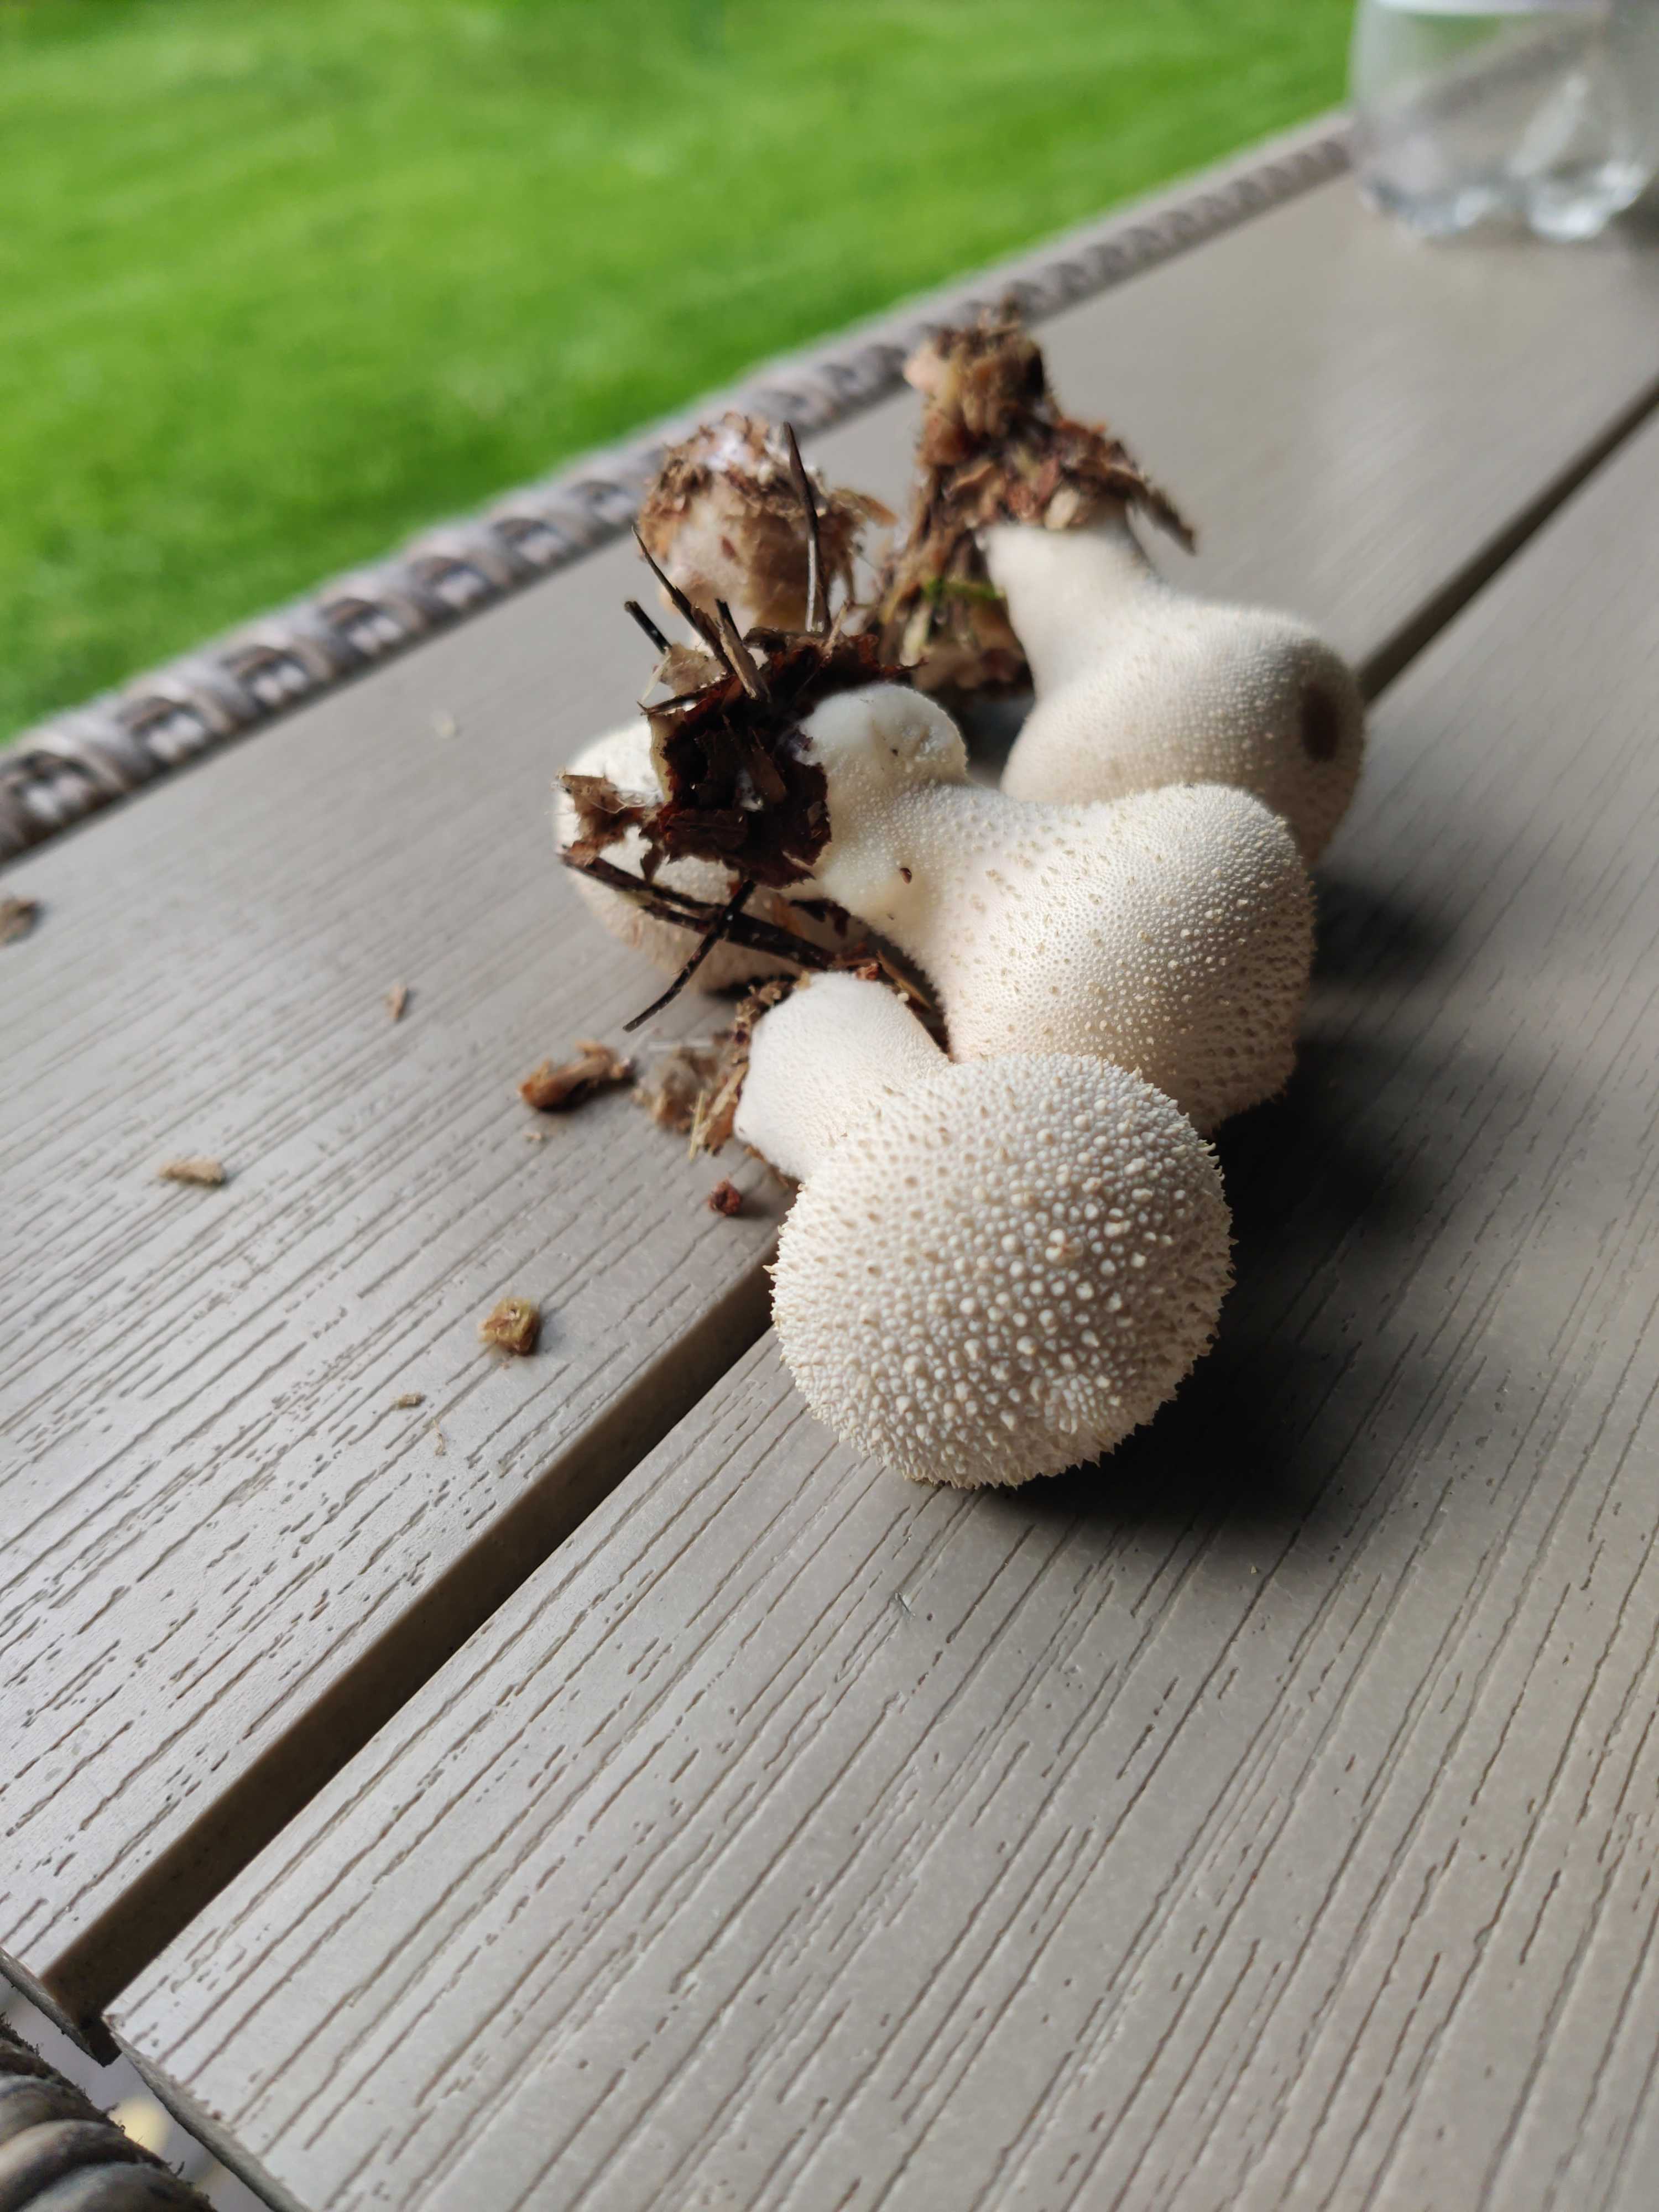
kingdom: Fungi
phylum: Basidiomycota
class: Agaricomycetes
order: Agaricales
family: Lycoperdaceae
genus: Lycoperdon
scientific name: Lycoperdon perlatum
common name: krystal-støvbold
